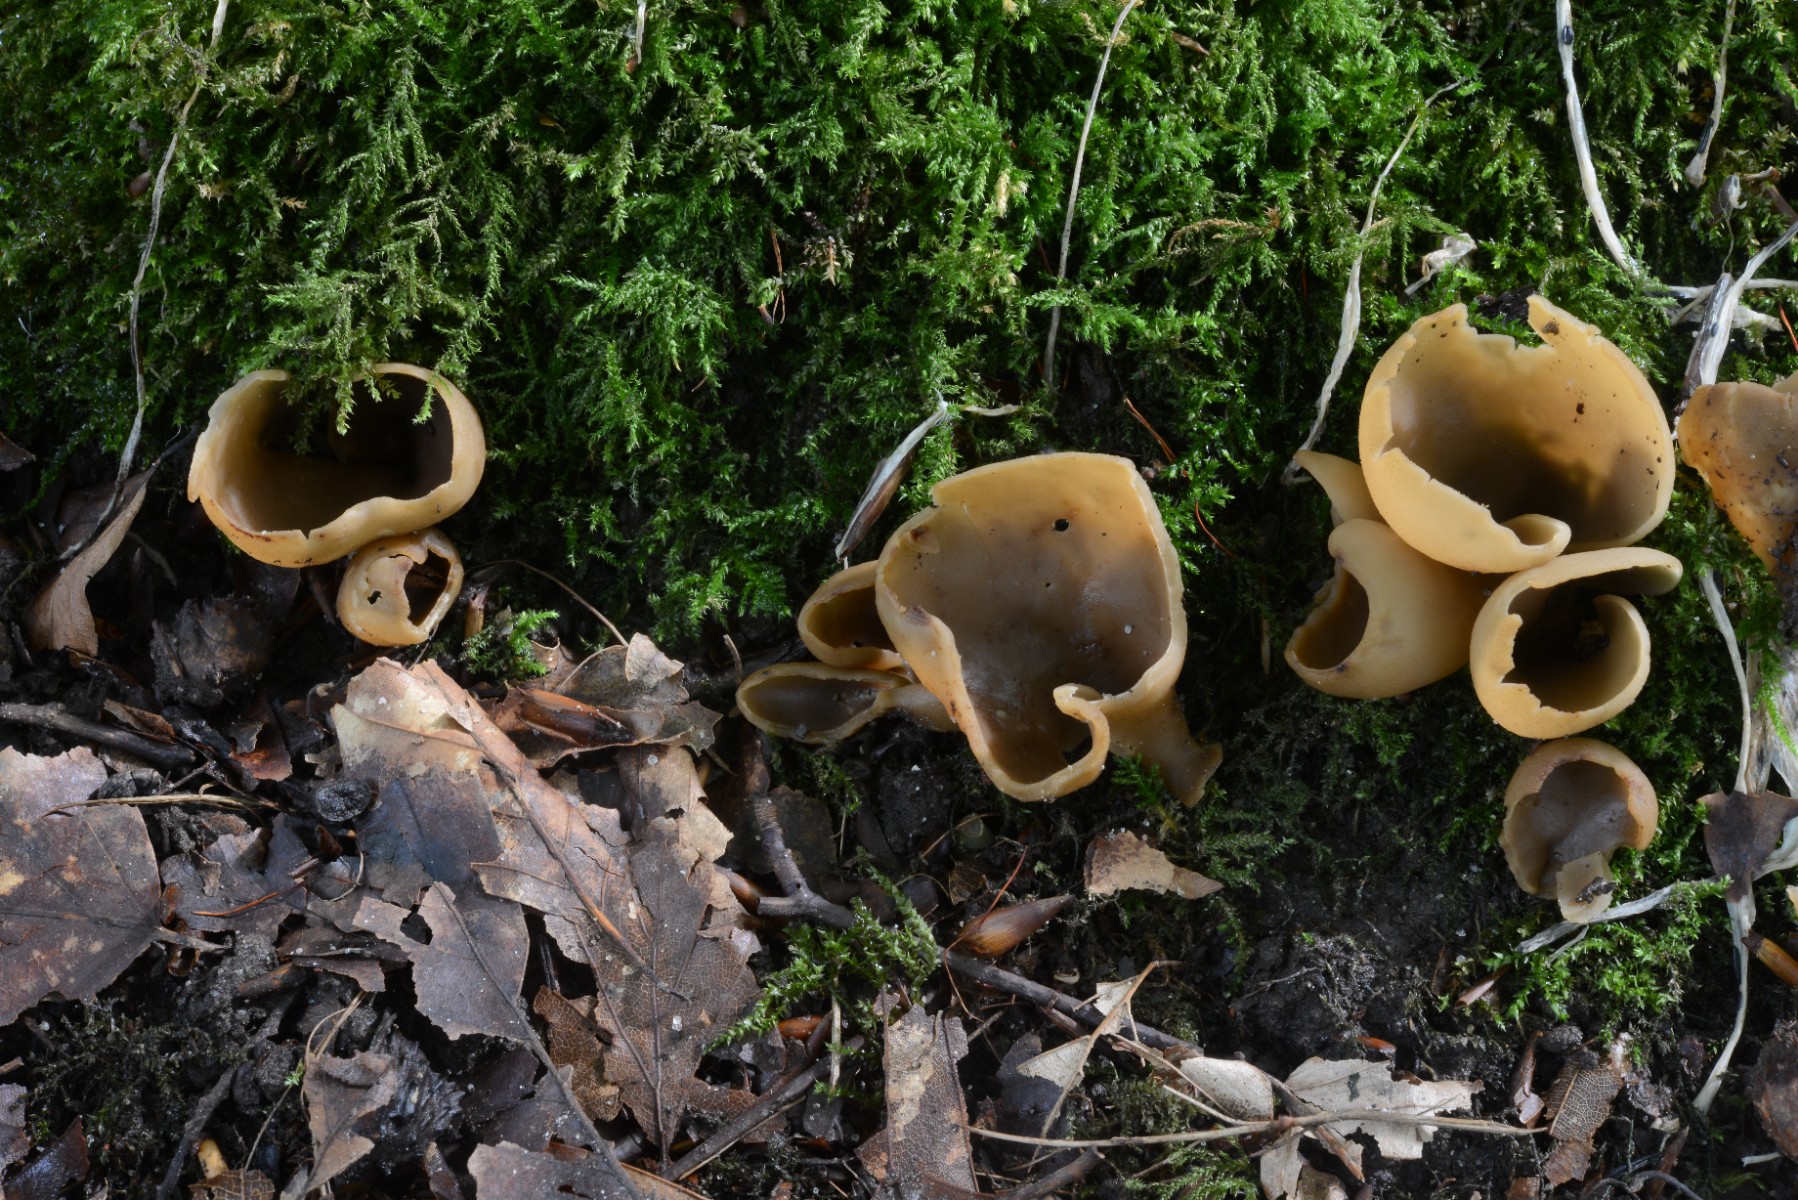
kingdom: Fungi
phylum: Ascomycota
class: Pezizomycetes
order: Pezizales
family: Otideaceae
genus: Otidea
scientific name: Otidea alutacea
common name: læder-ørebæger
